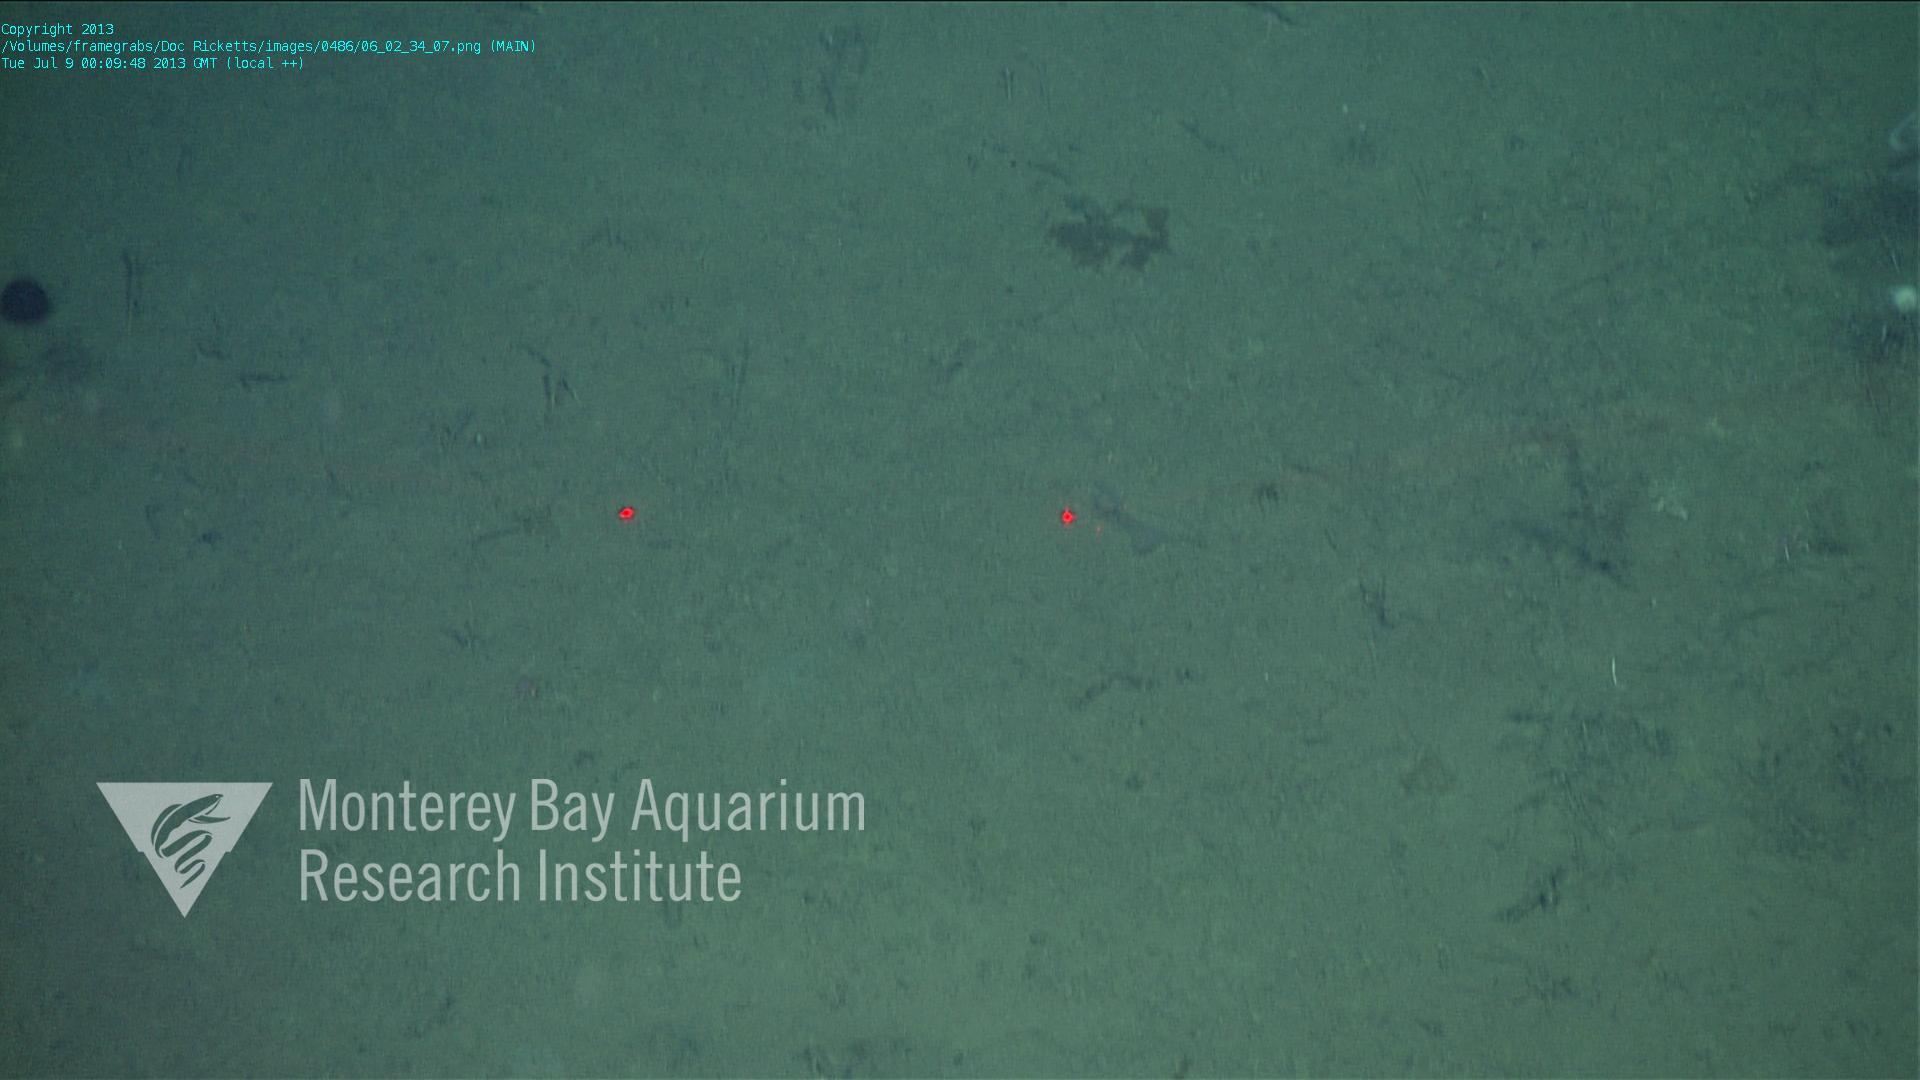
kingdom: Animalia
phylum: Porifera
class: Demospongiae
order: Poecilosclerida
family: Cladorhizidae
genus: Cladorhiza
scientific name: Cladorhiza
